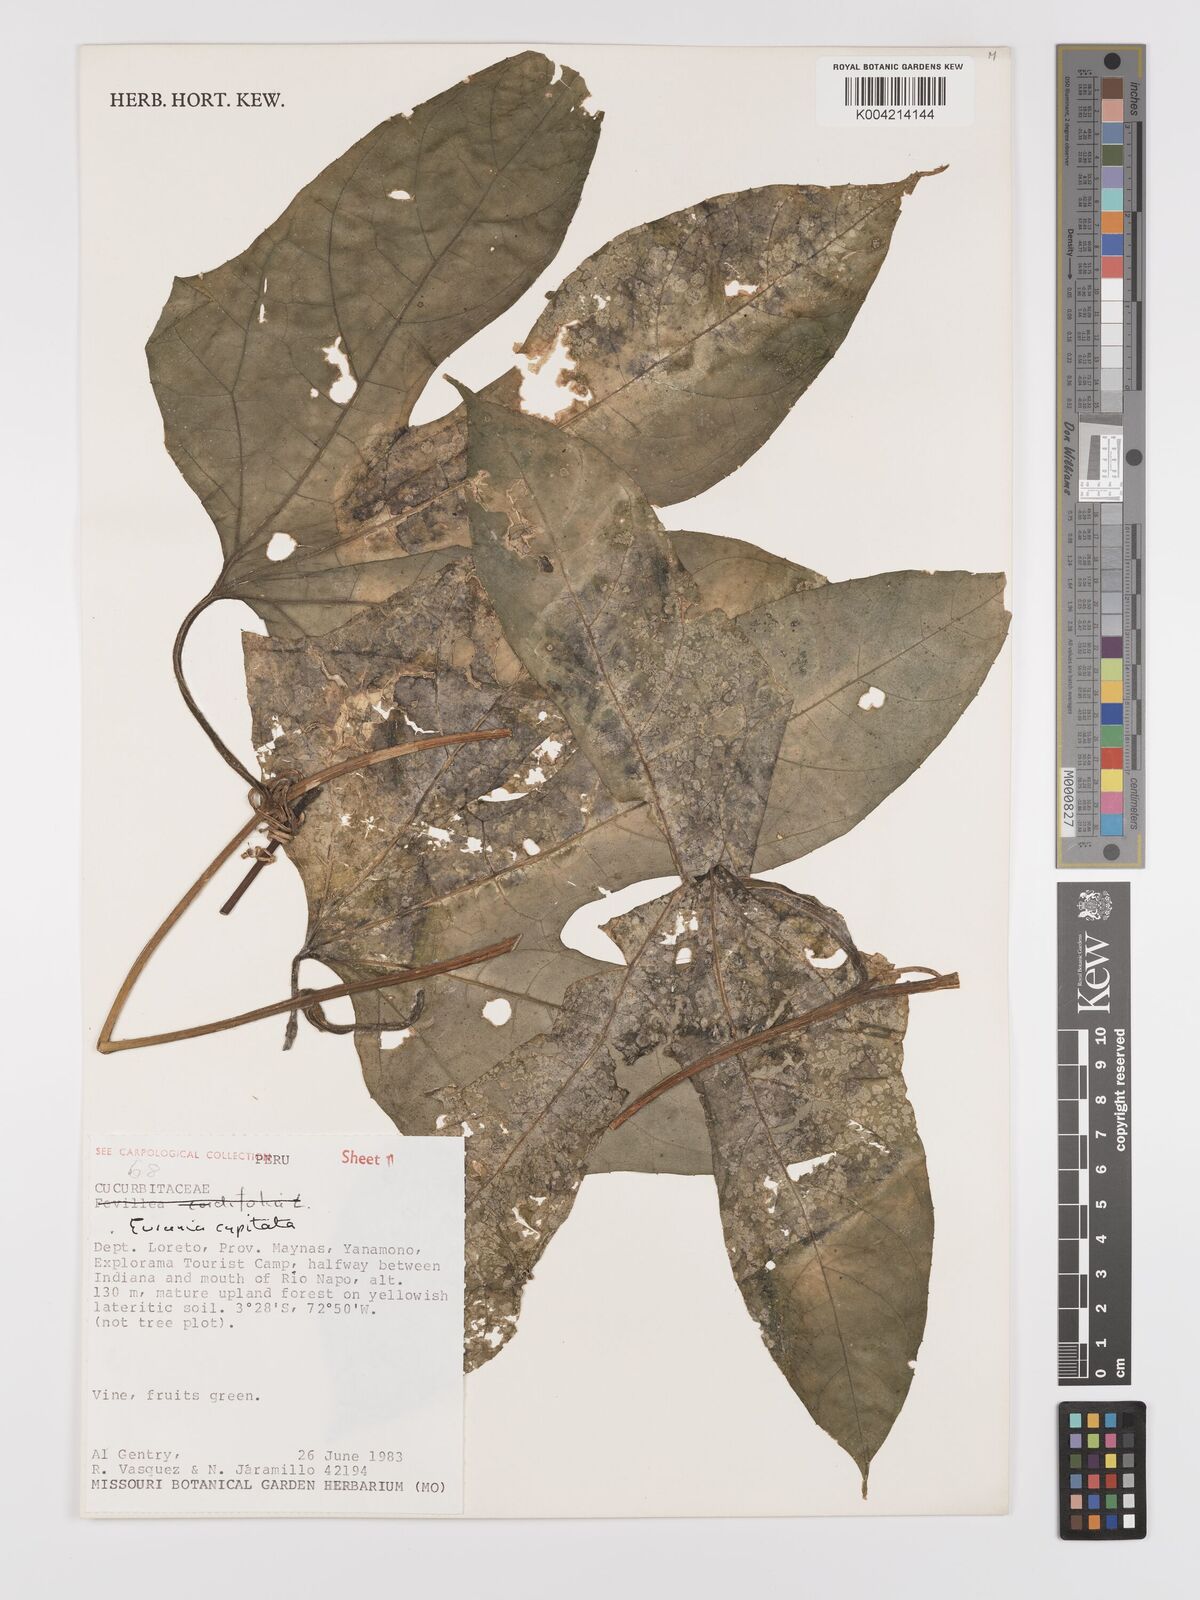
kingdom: Plantae
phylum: Tracheophyta
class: Magnoliopsida
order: Cucurbitales
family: Cucurbitaceae
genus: Gurania
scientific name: Gurania capitata
